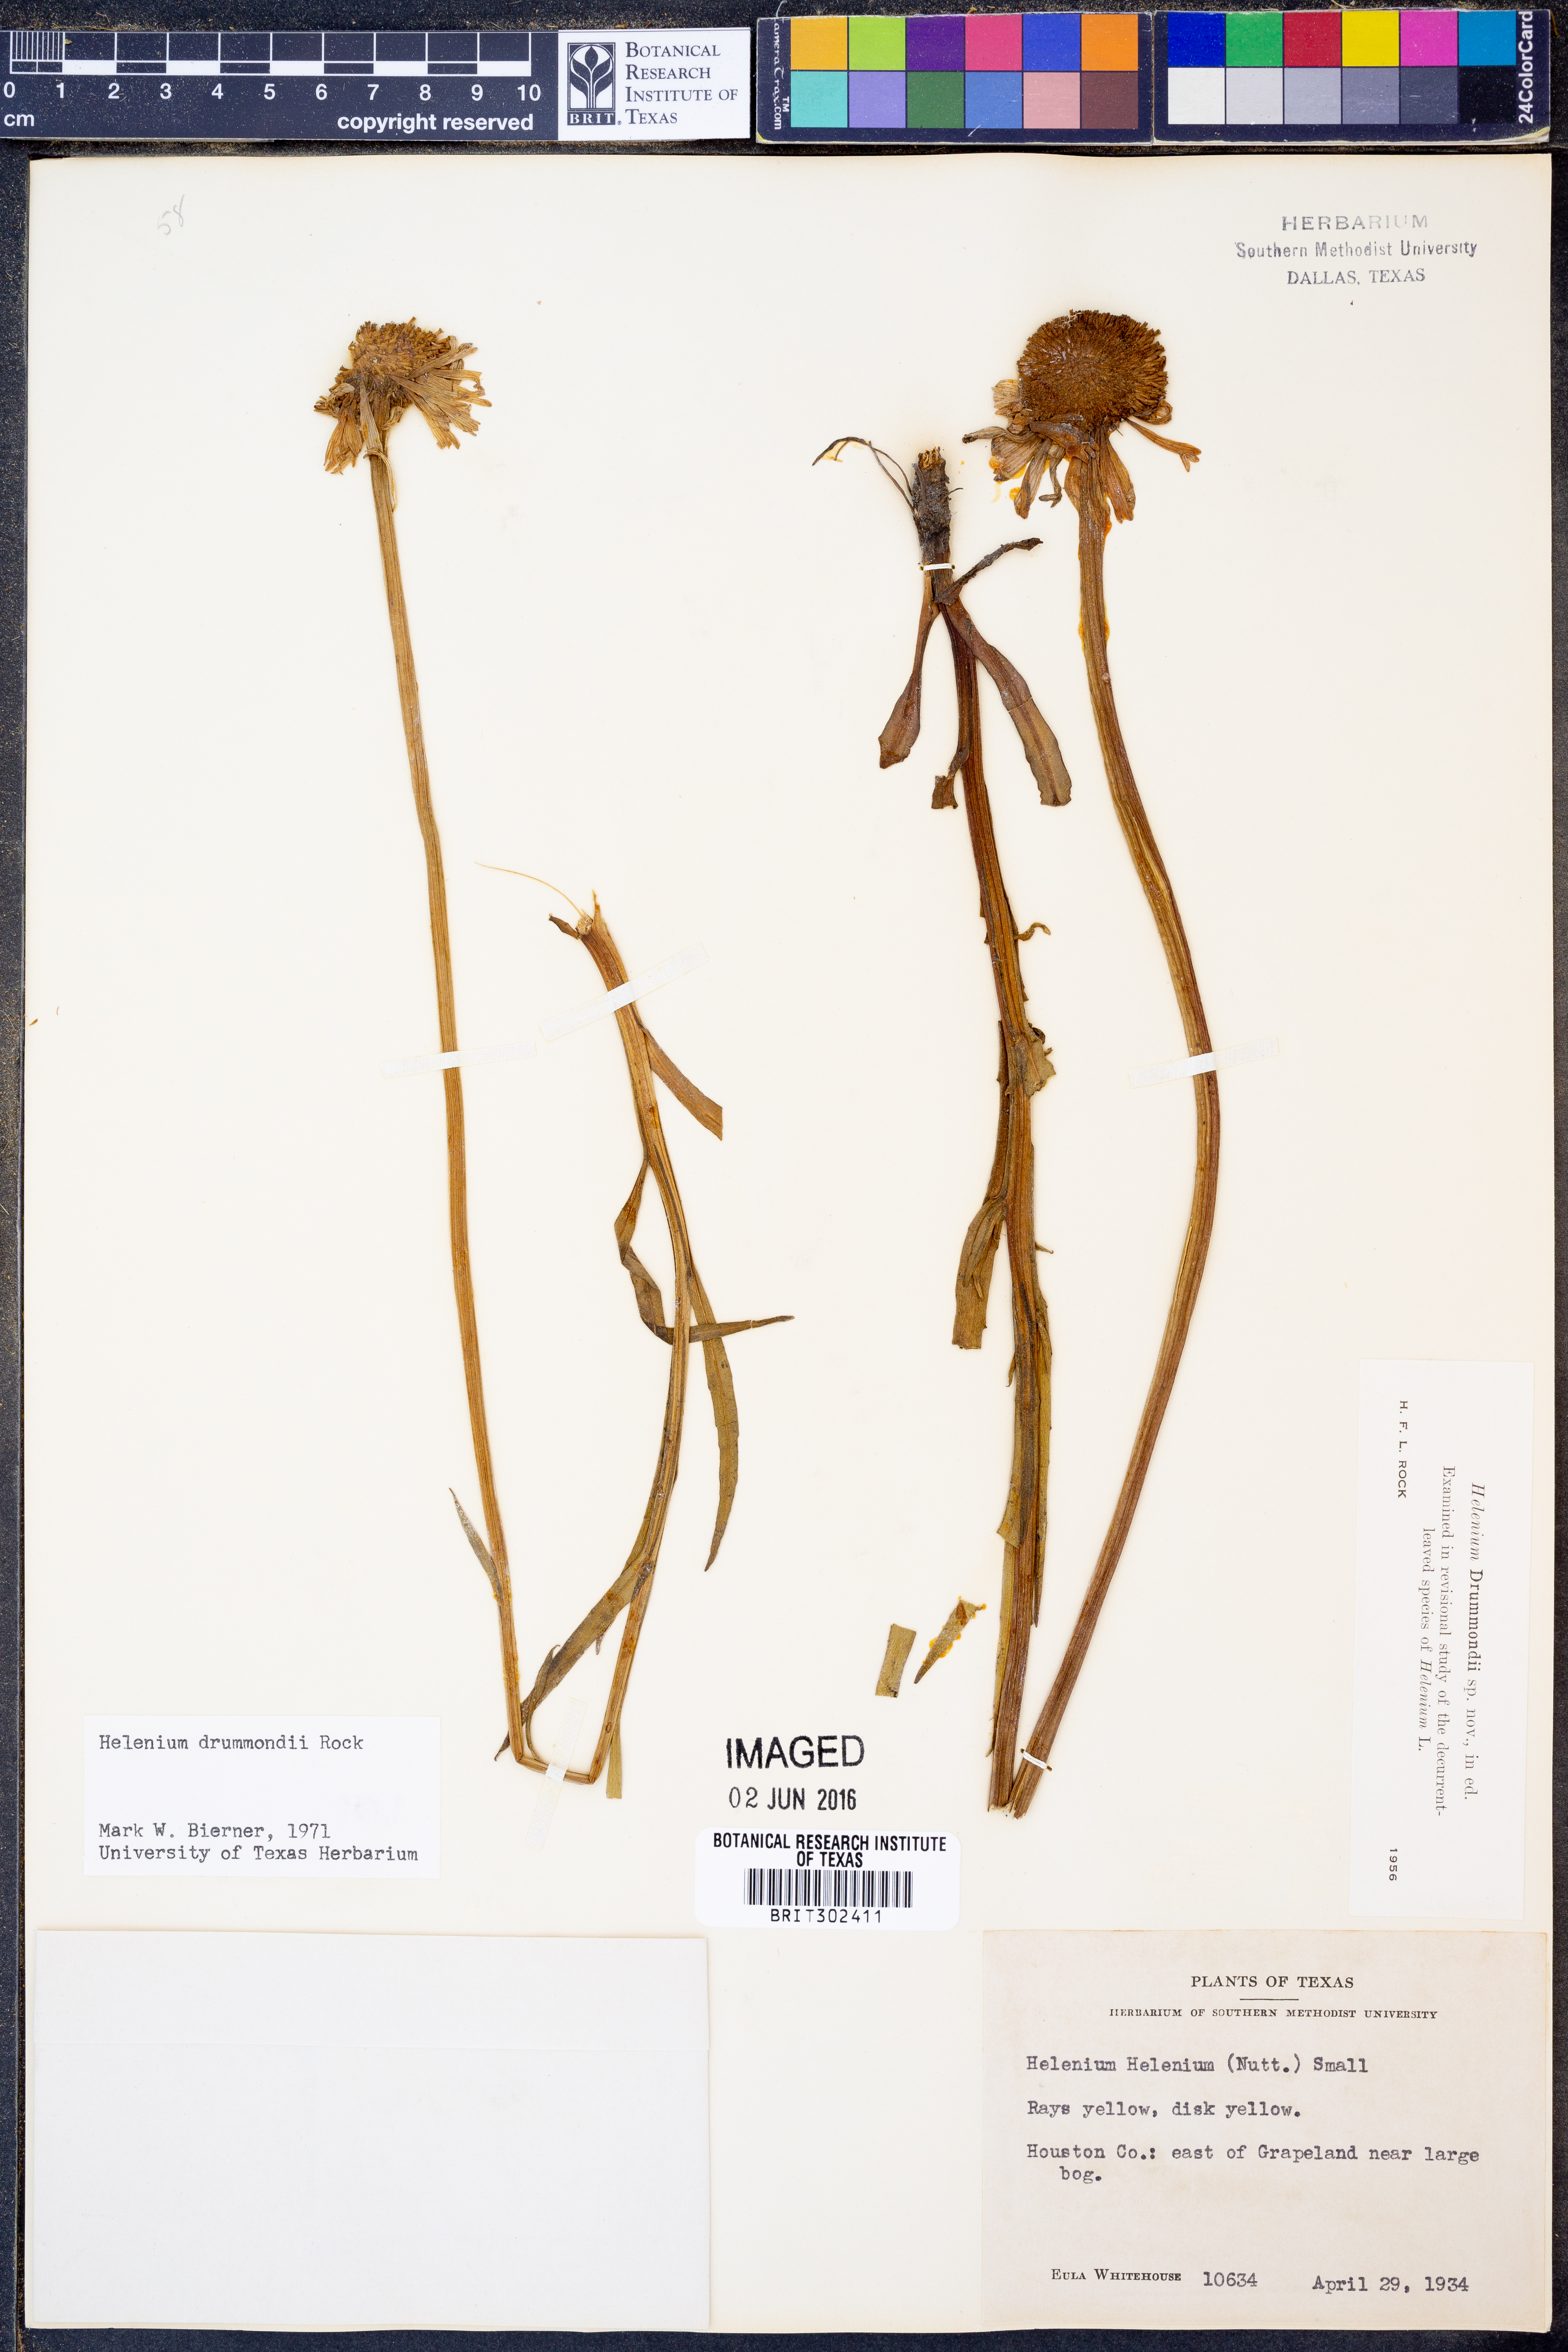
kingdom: Plantae
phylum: Tracheophyta
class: Magnoliopsida
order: Asterales
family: Asteraceae
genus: Helenium
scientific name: Helenium drummondii
